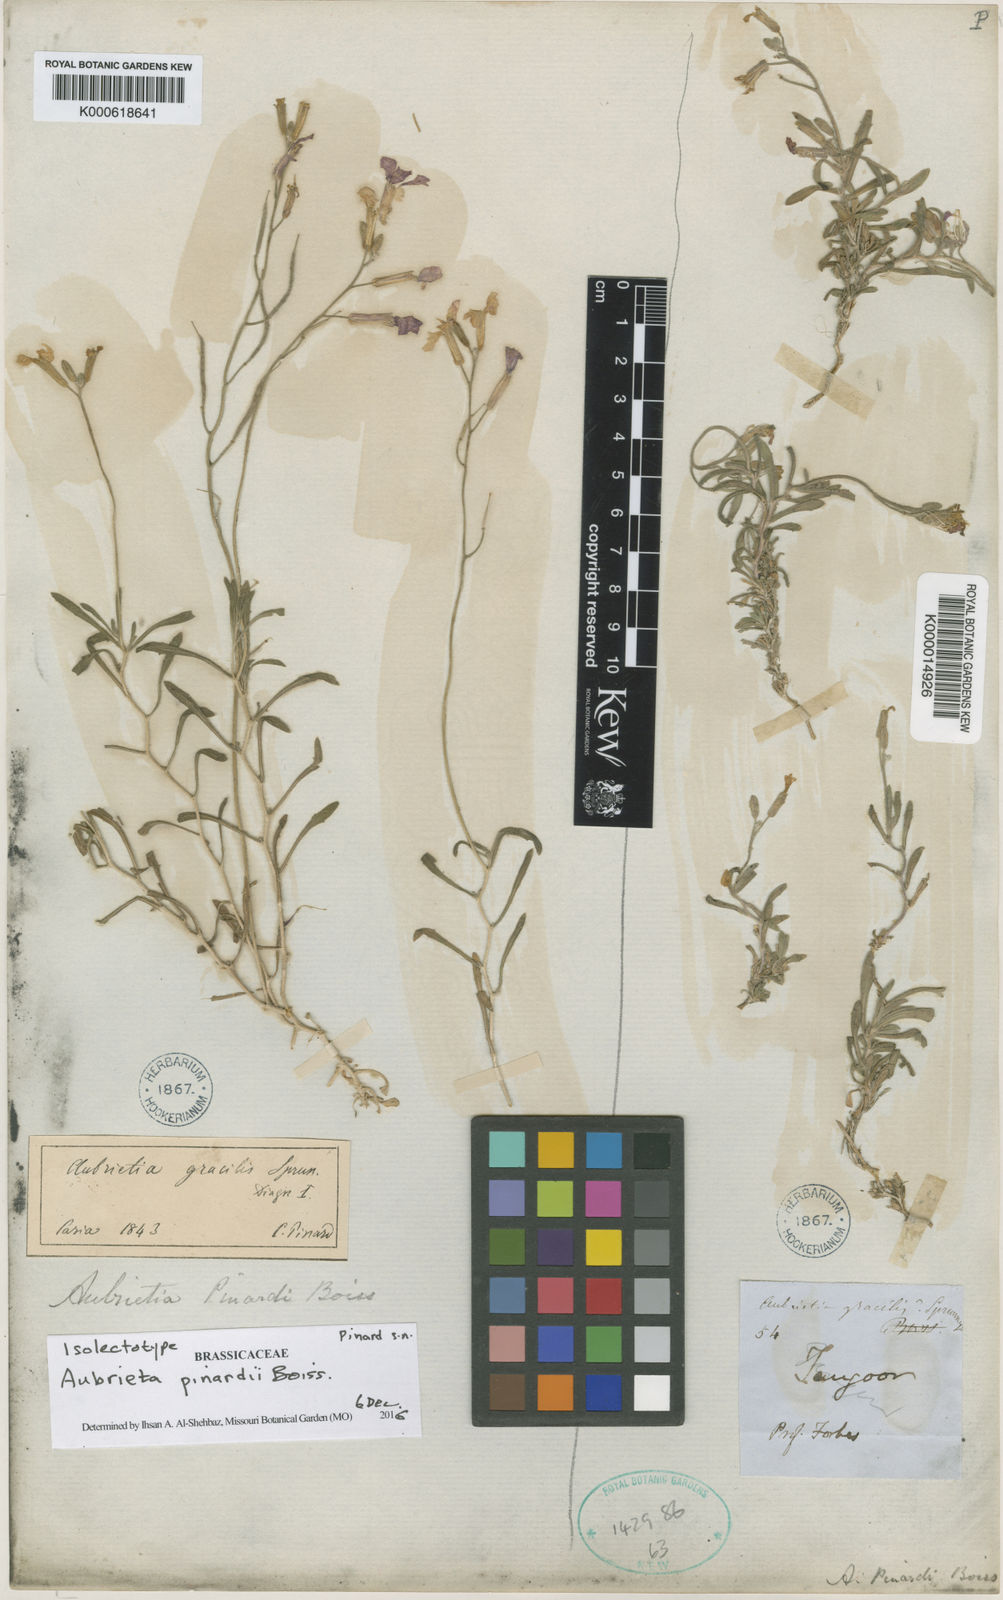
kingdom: Plantae
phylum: Tracheophyta
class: Magnoliopsida
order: Brassicales
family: Brassicaceae
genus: Aubrieta
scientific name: Aubrieta pinardii
